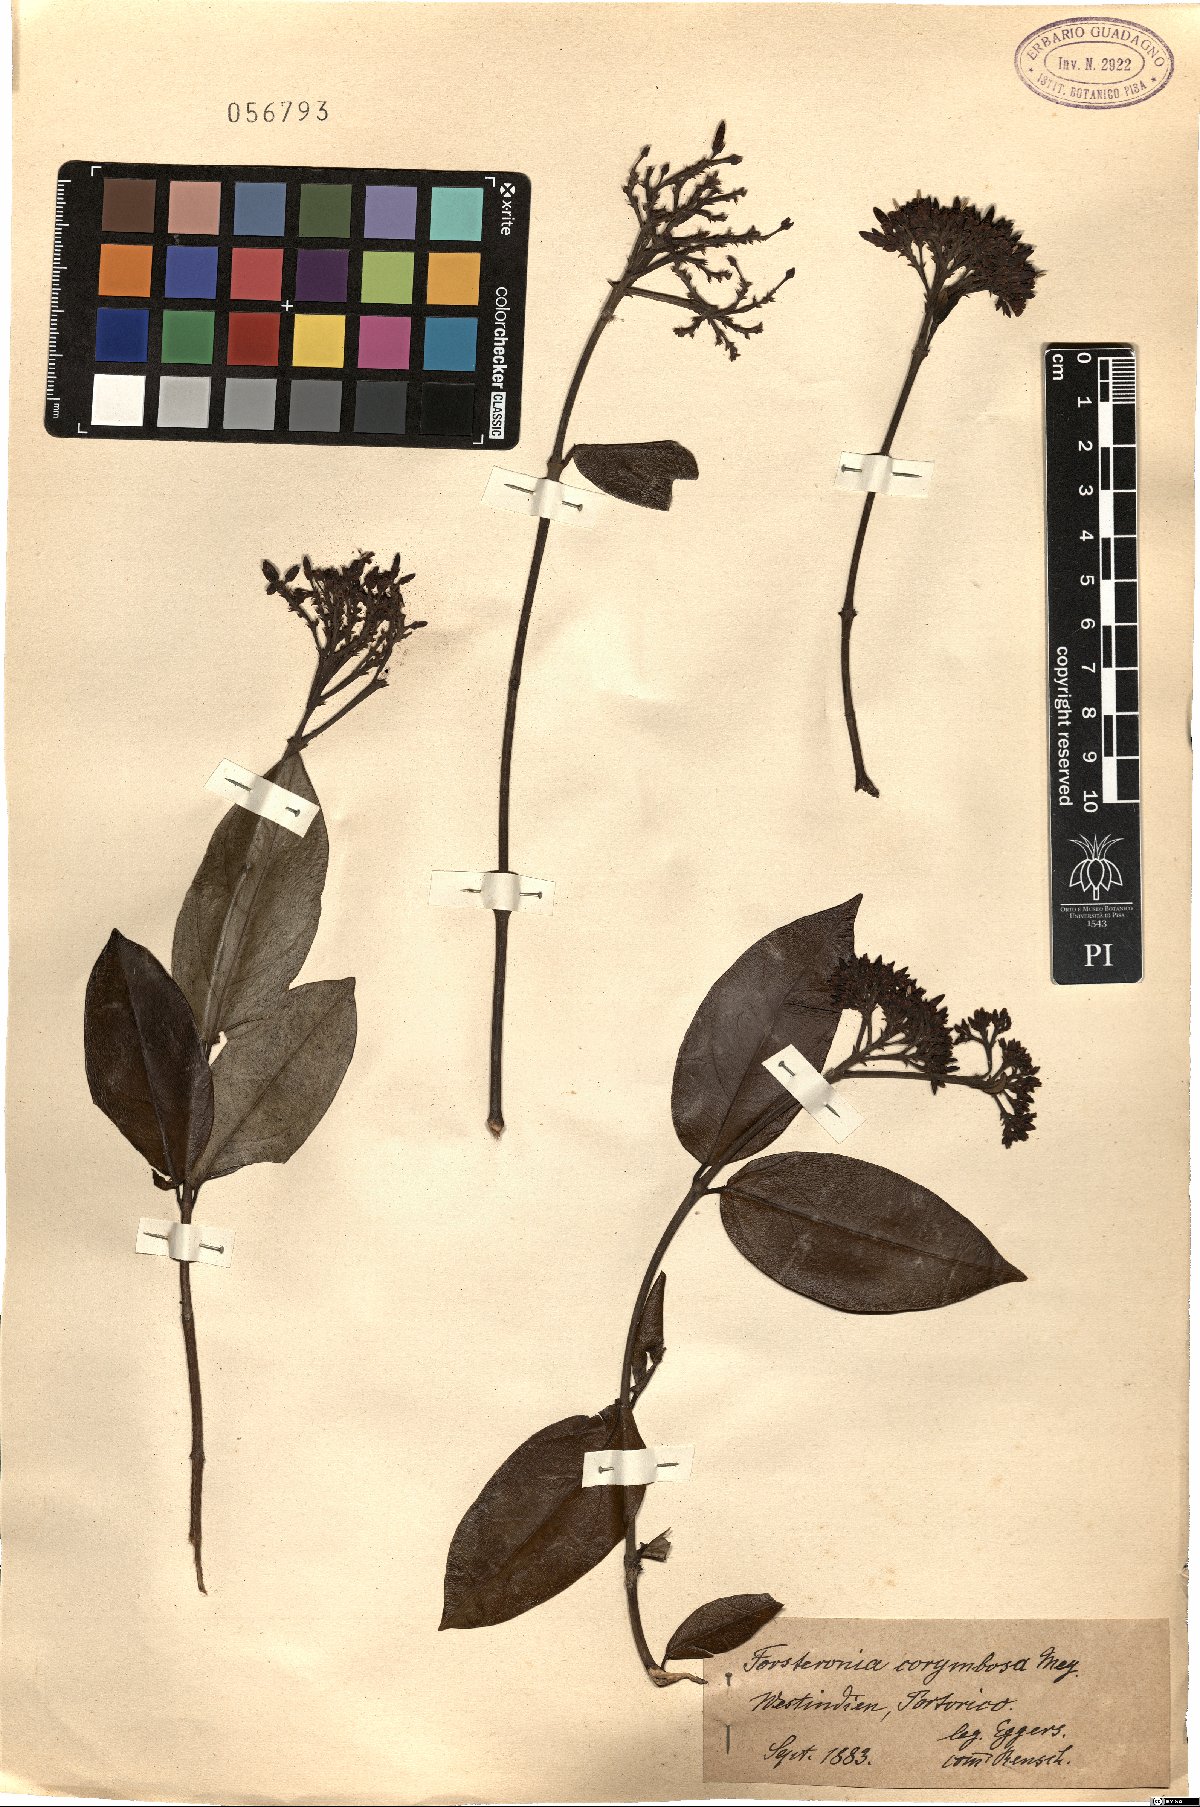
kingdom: Plantae
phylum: Tracheophyta
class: Magnoliopsida
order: Gentianales
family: Apocynaceae
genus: Pinochia
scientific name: Pinochia corymbosa
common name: Sanjuanera
